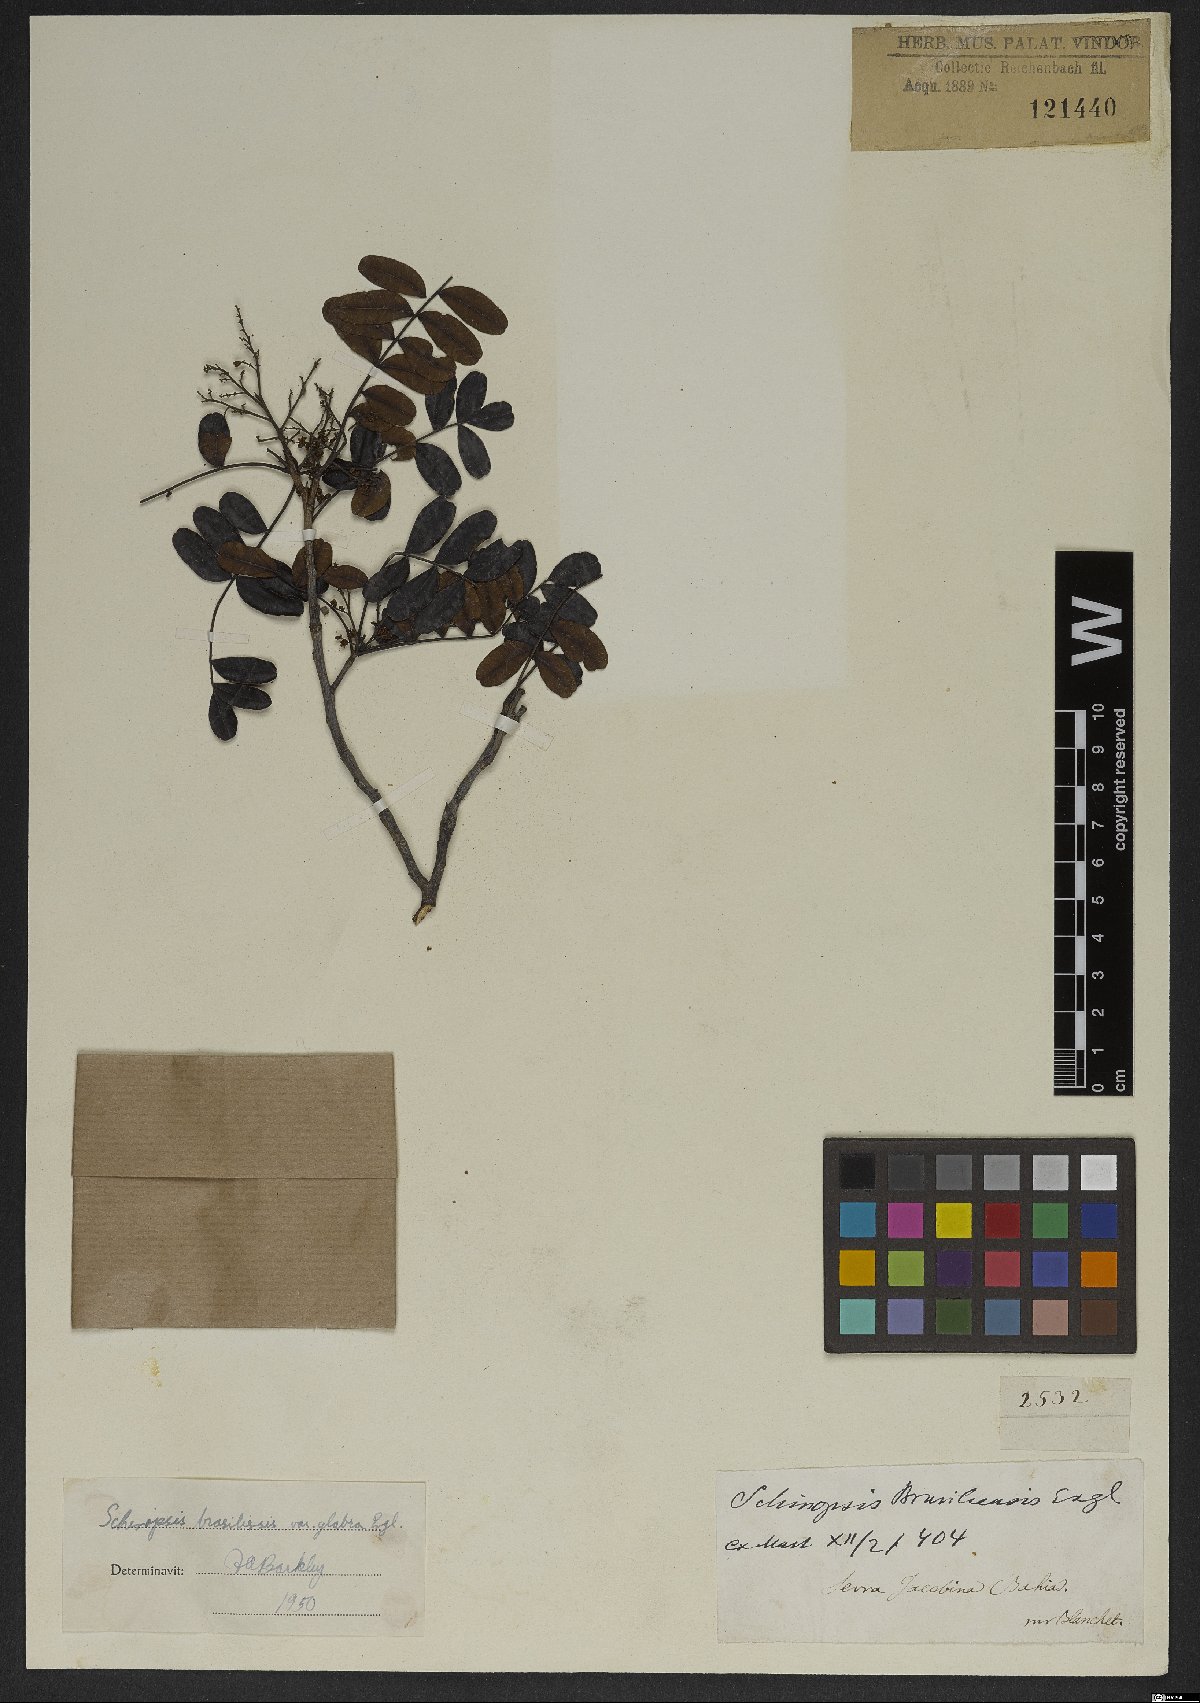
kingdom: Plantae
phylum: Tracheophyta
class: Magnoliopsida
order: Sapindales
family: Anacardiaceae
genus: Schinopsis
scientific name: Schinopsis brasiliensis
